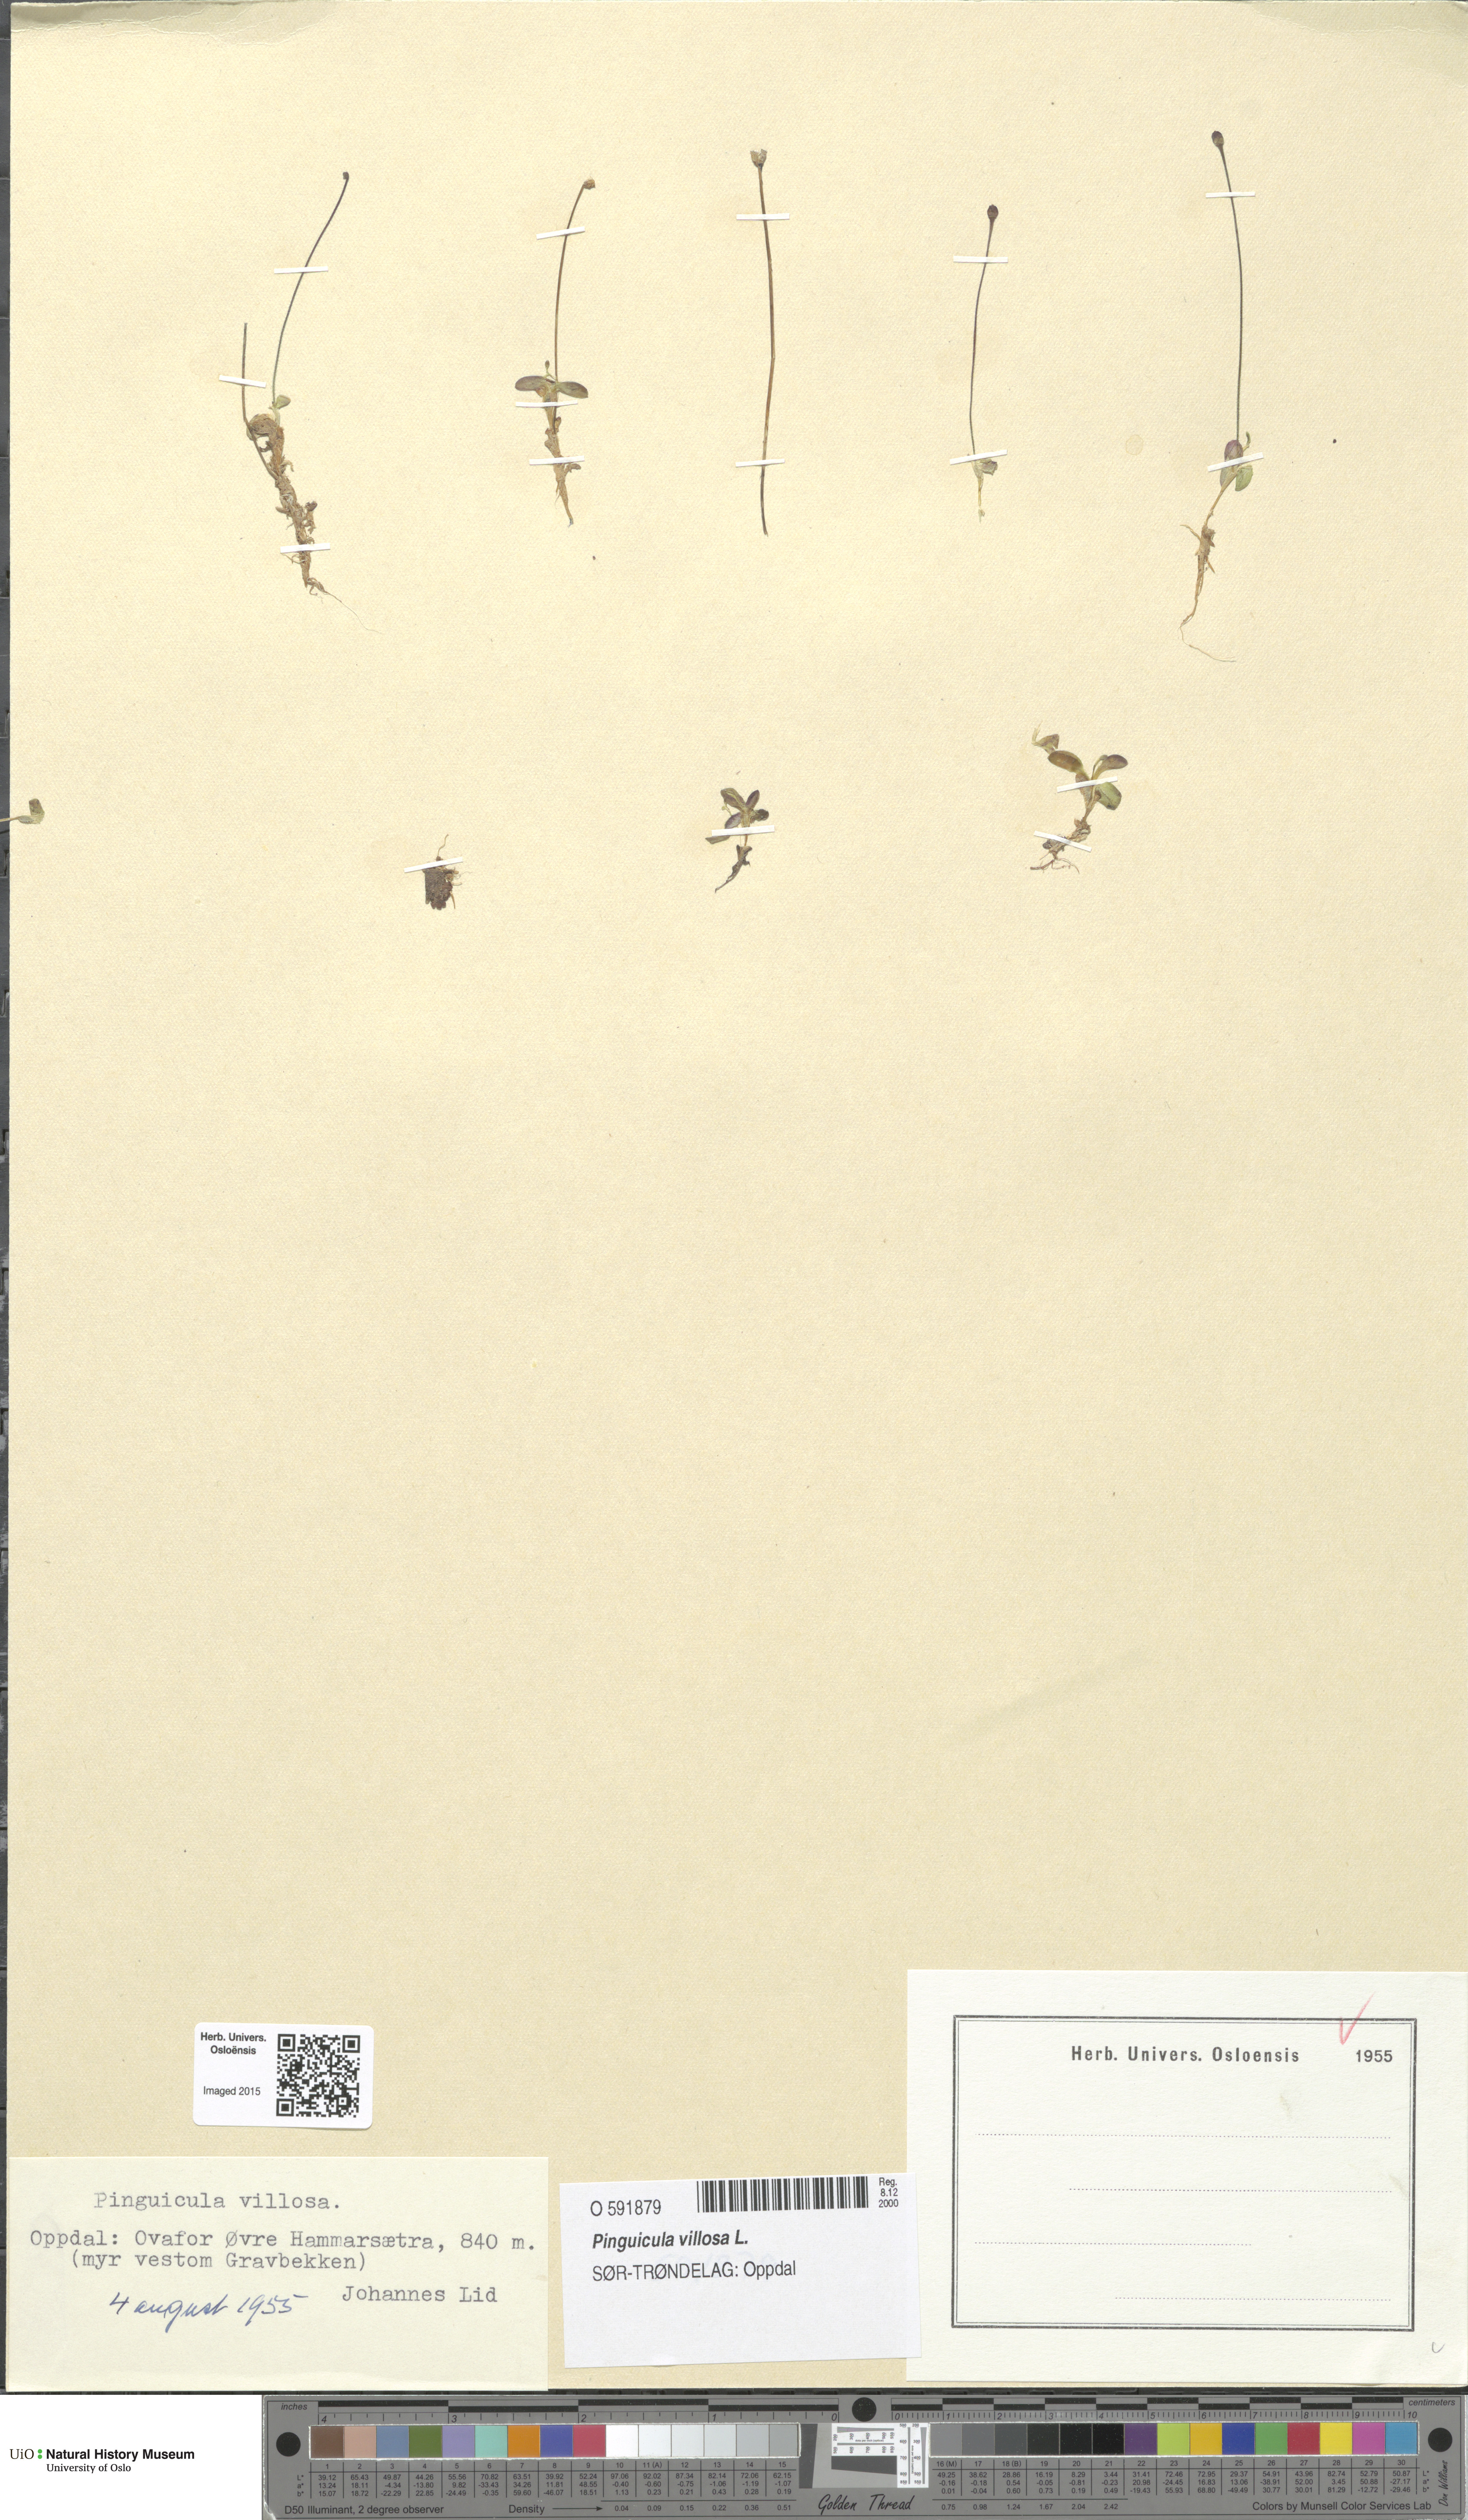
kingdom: Plantae
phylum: Tracheophyta
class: Magnoliopsida
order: Lamiales
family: Lentibulariaceae
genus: Pinguicula
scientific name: Pinguicula villosa
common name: Hairy butterwort
